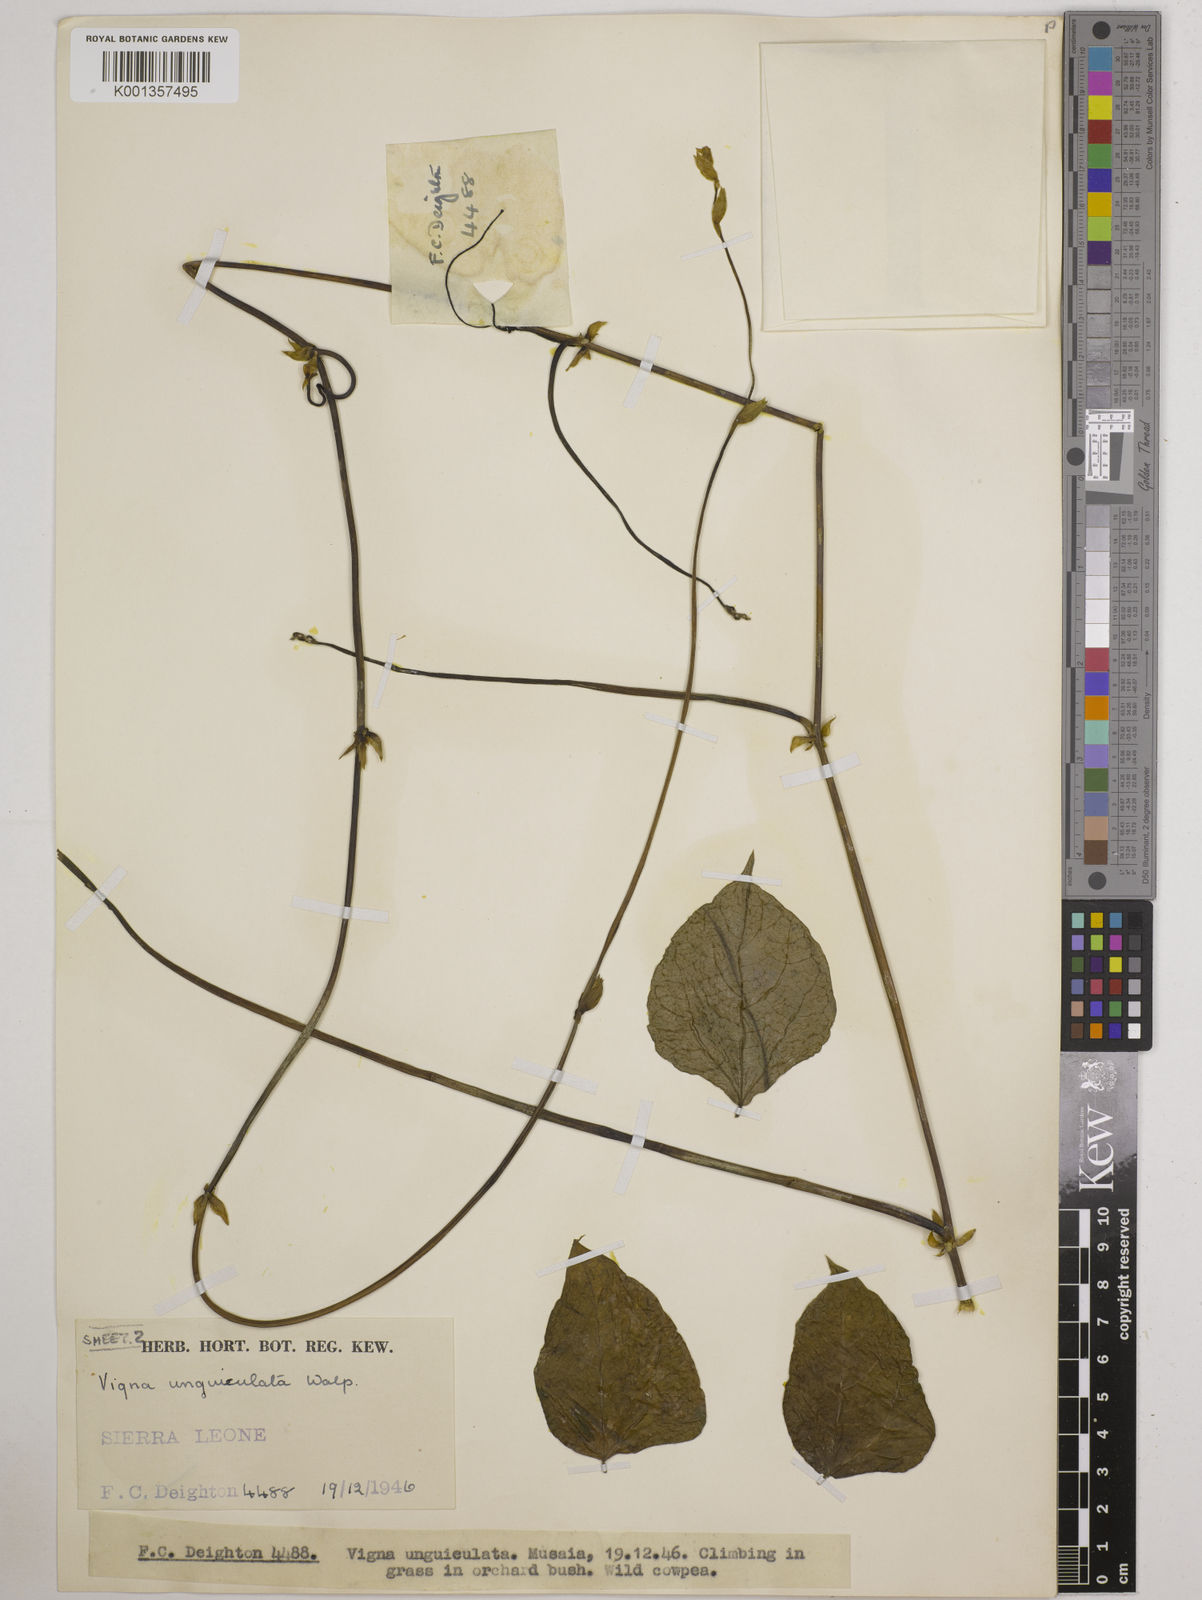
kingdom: Plantae
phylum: Tracheophyta
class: Magnoliopsida
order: Fabales
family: Fabaceae
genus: Vigna
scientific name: Vigna
